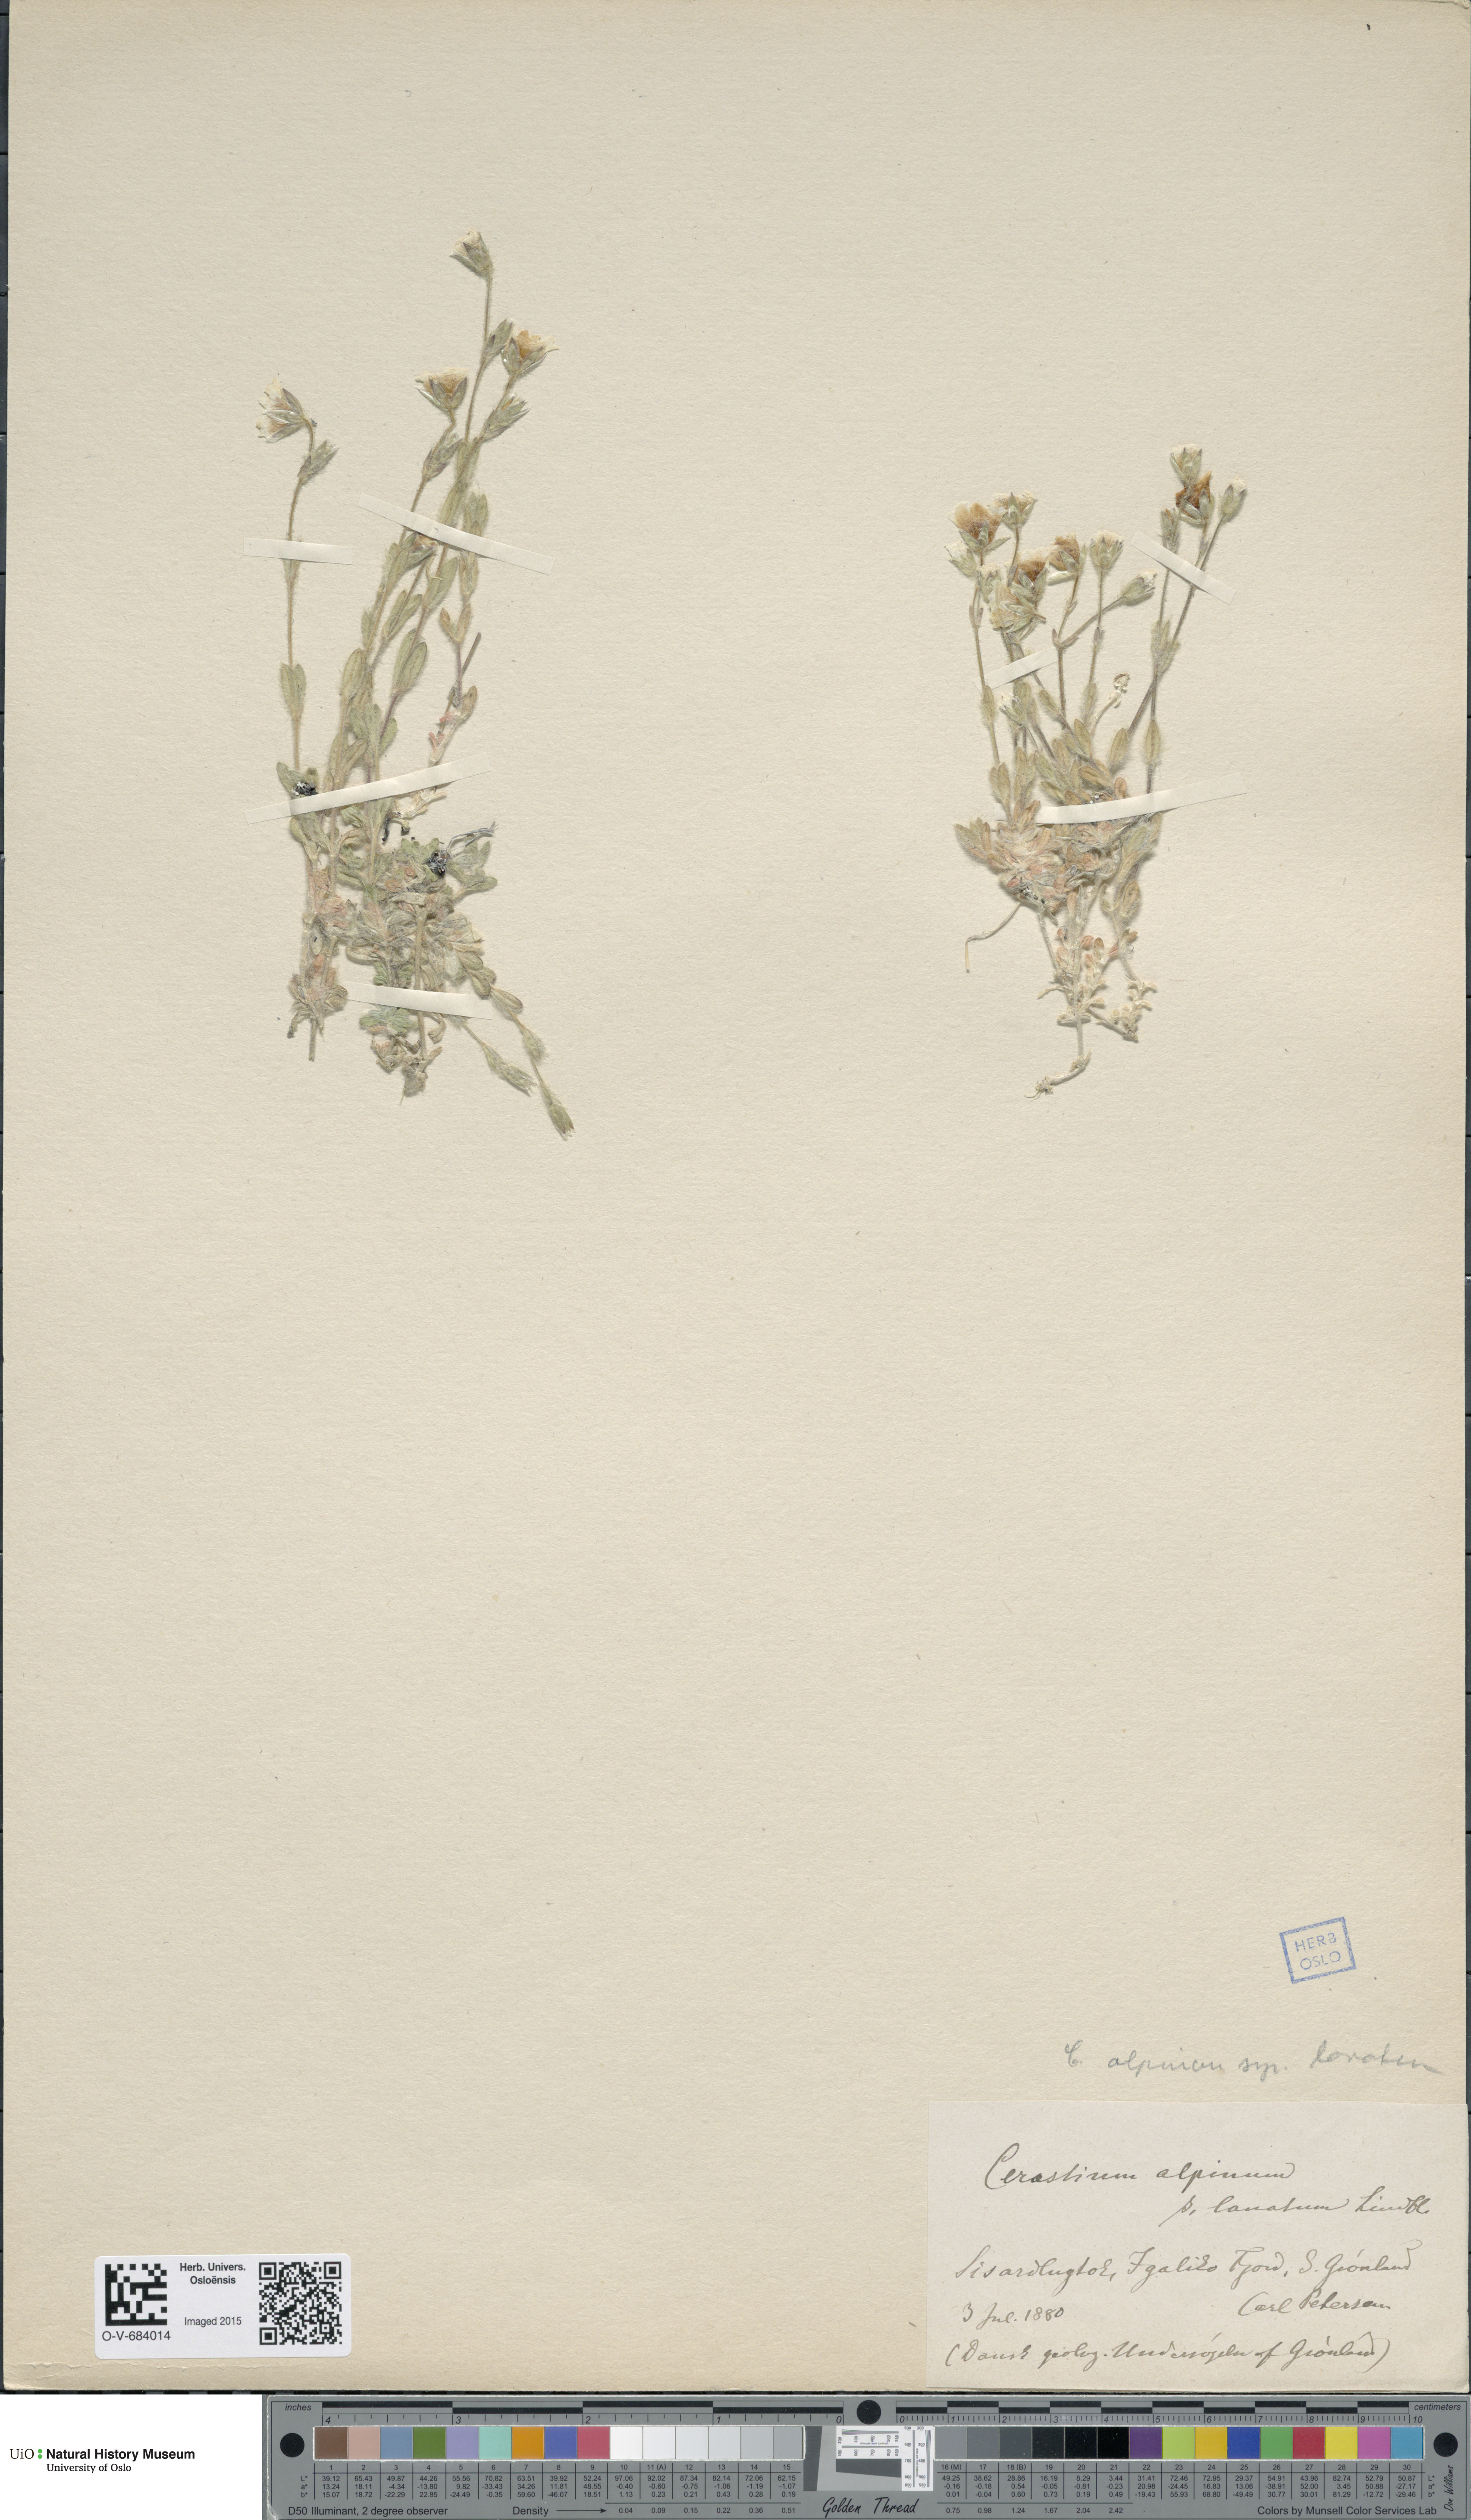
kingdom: Plantae
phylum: Tracheophyta
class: Magnoliopsida
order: Caryophyllales
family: Caryophyllaceae
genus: Cerastium
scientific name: Cerastium alpinum
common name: Alpine mouse-ear
